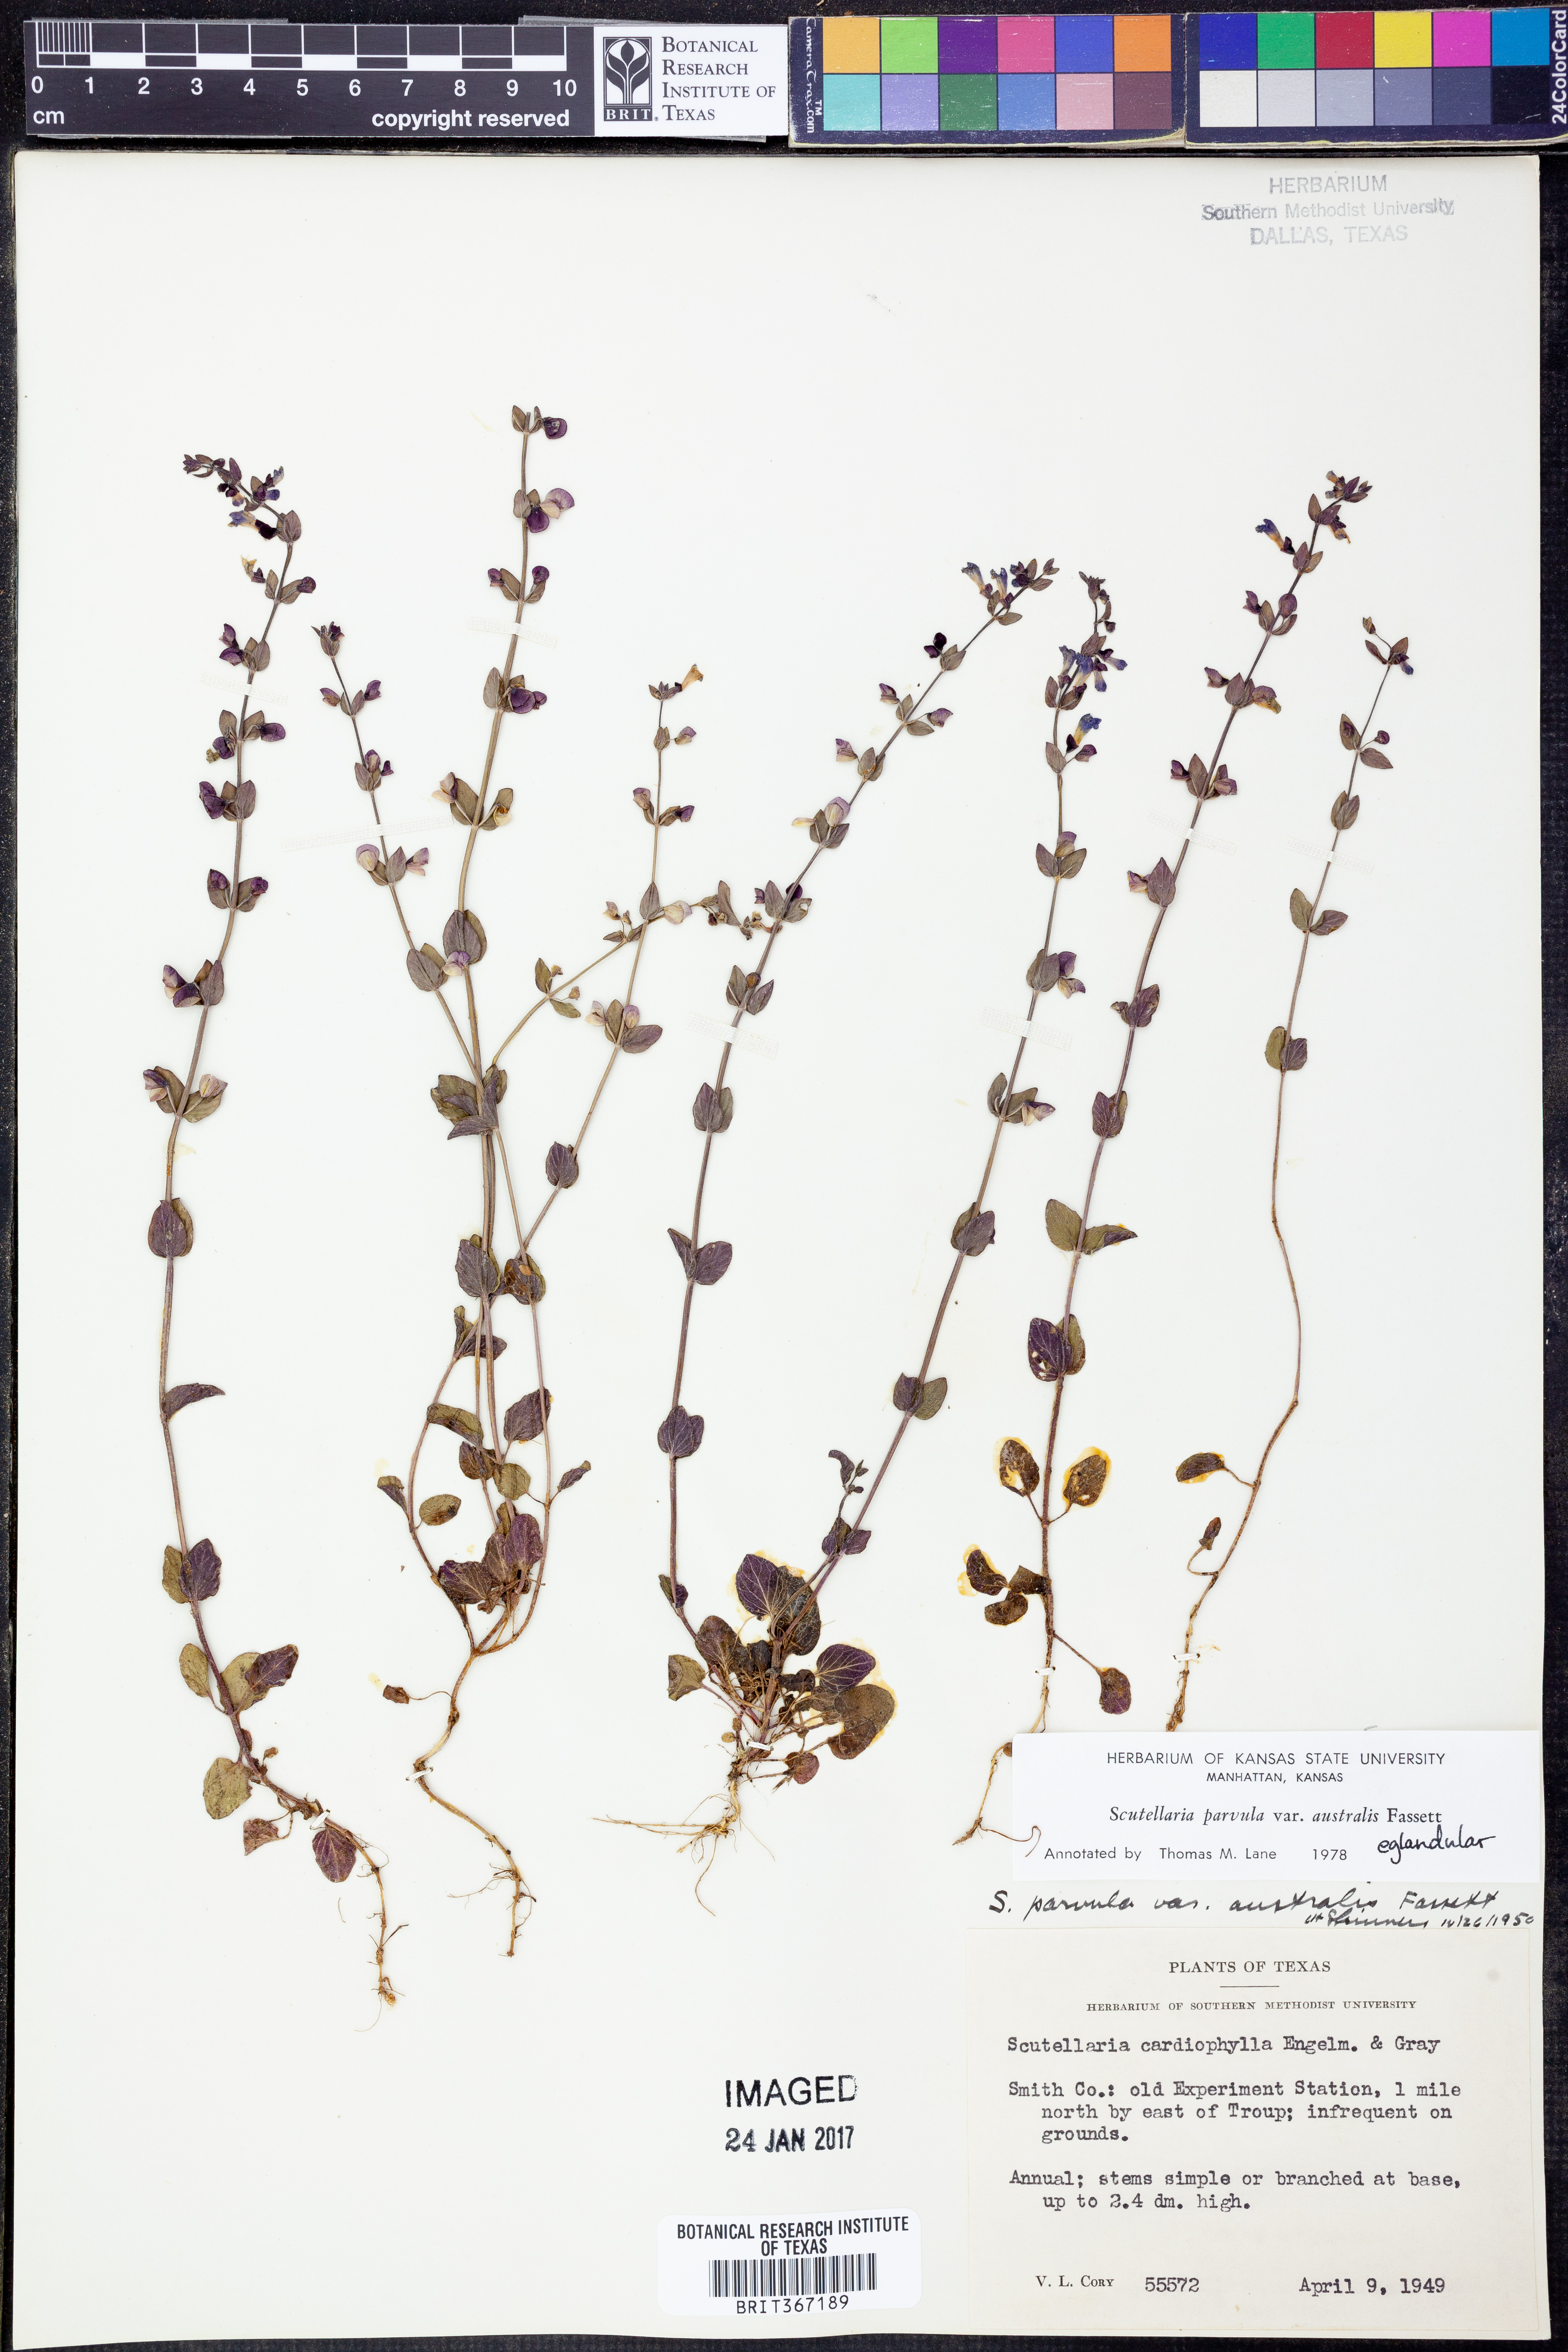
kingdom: Plantae
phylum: Tracheophyta
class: Magnoliopsida
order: Lamiales
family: Lamiaceae
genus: Scutellaria
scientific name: Scutellaria parvula
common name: Little scullcap
